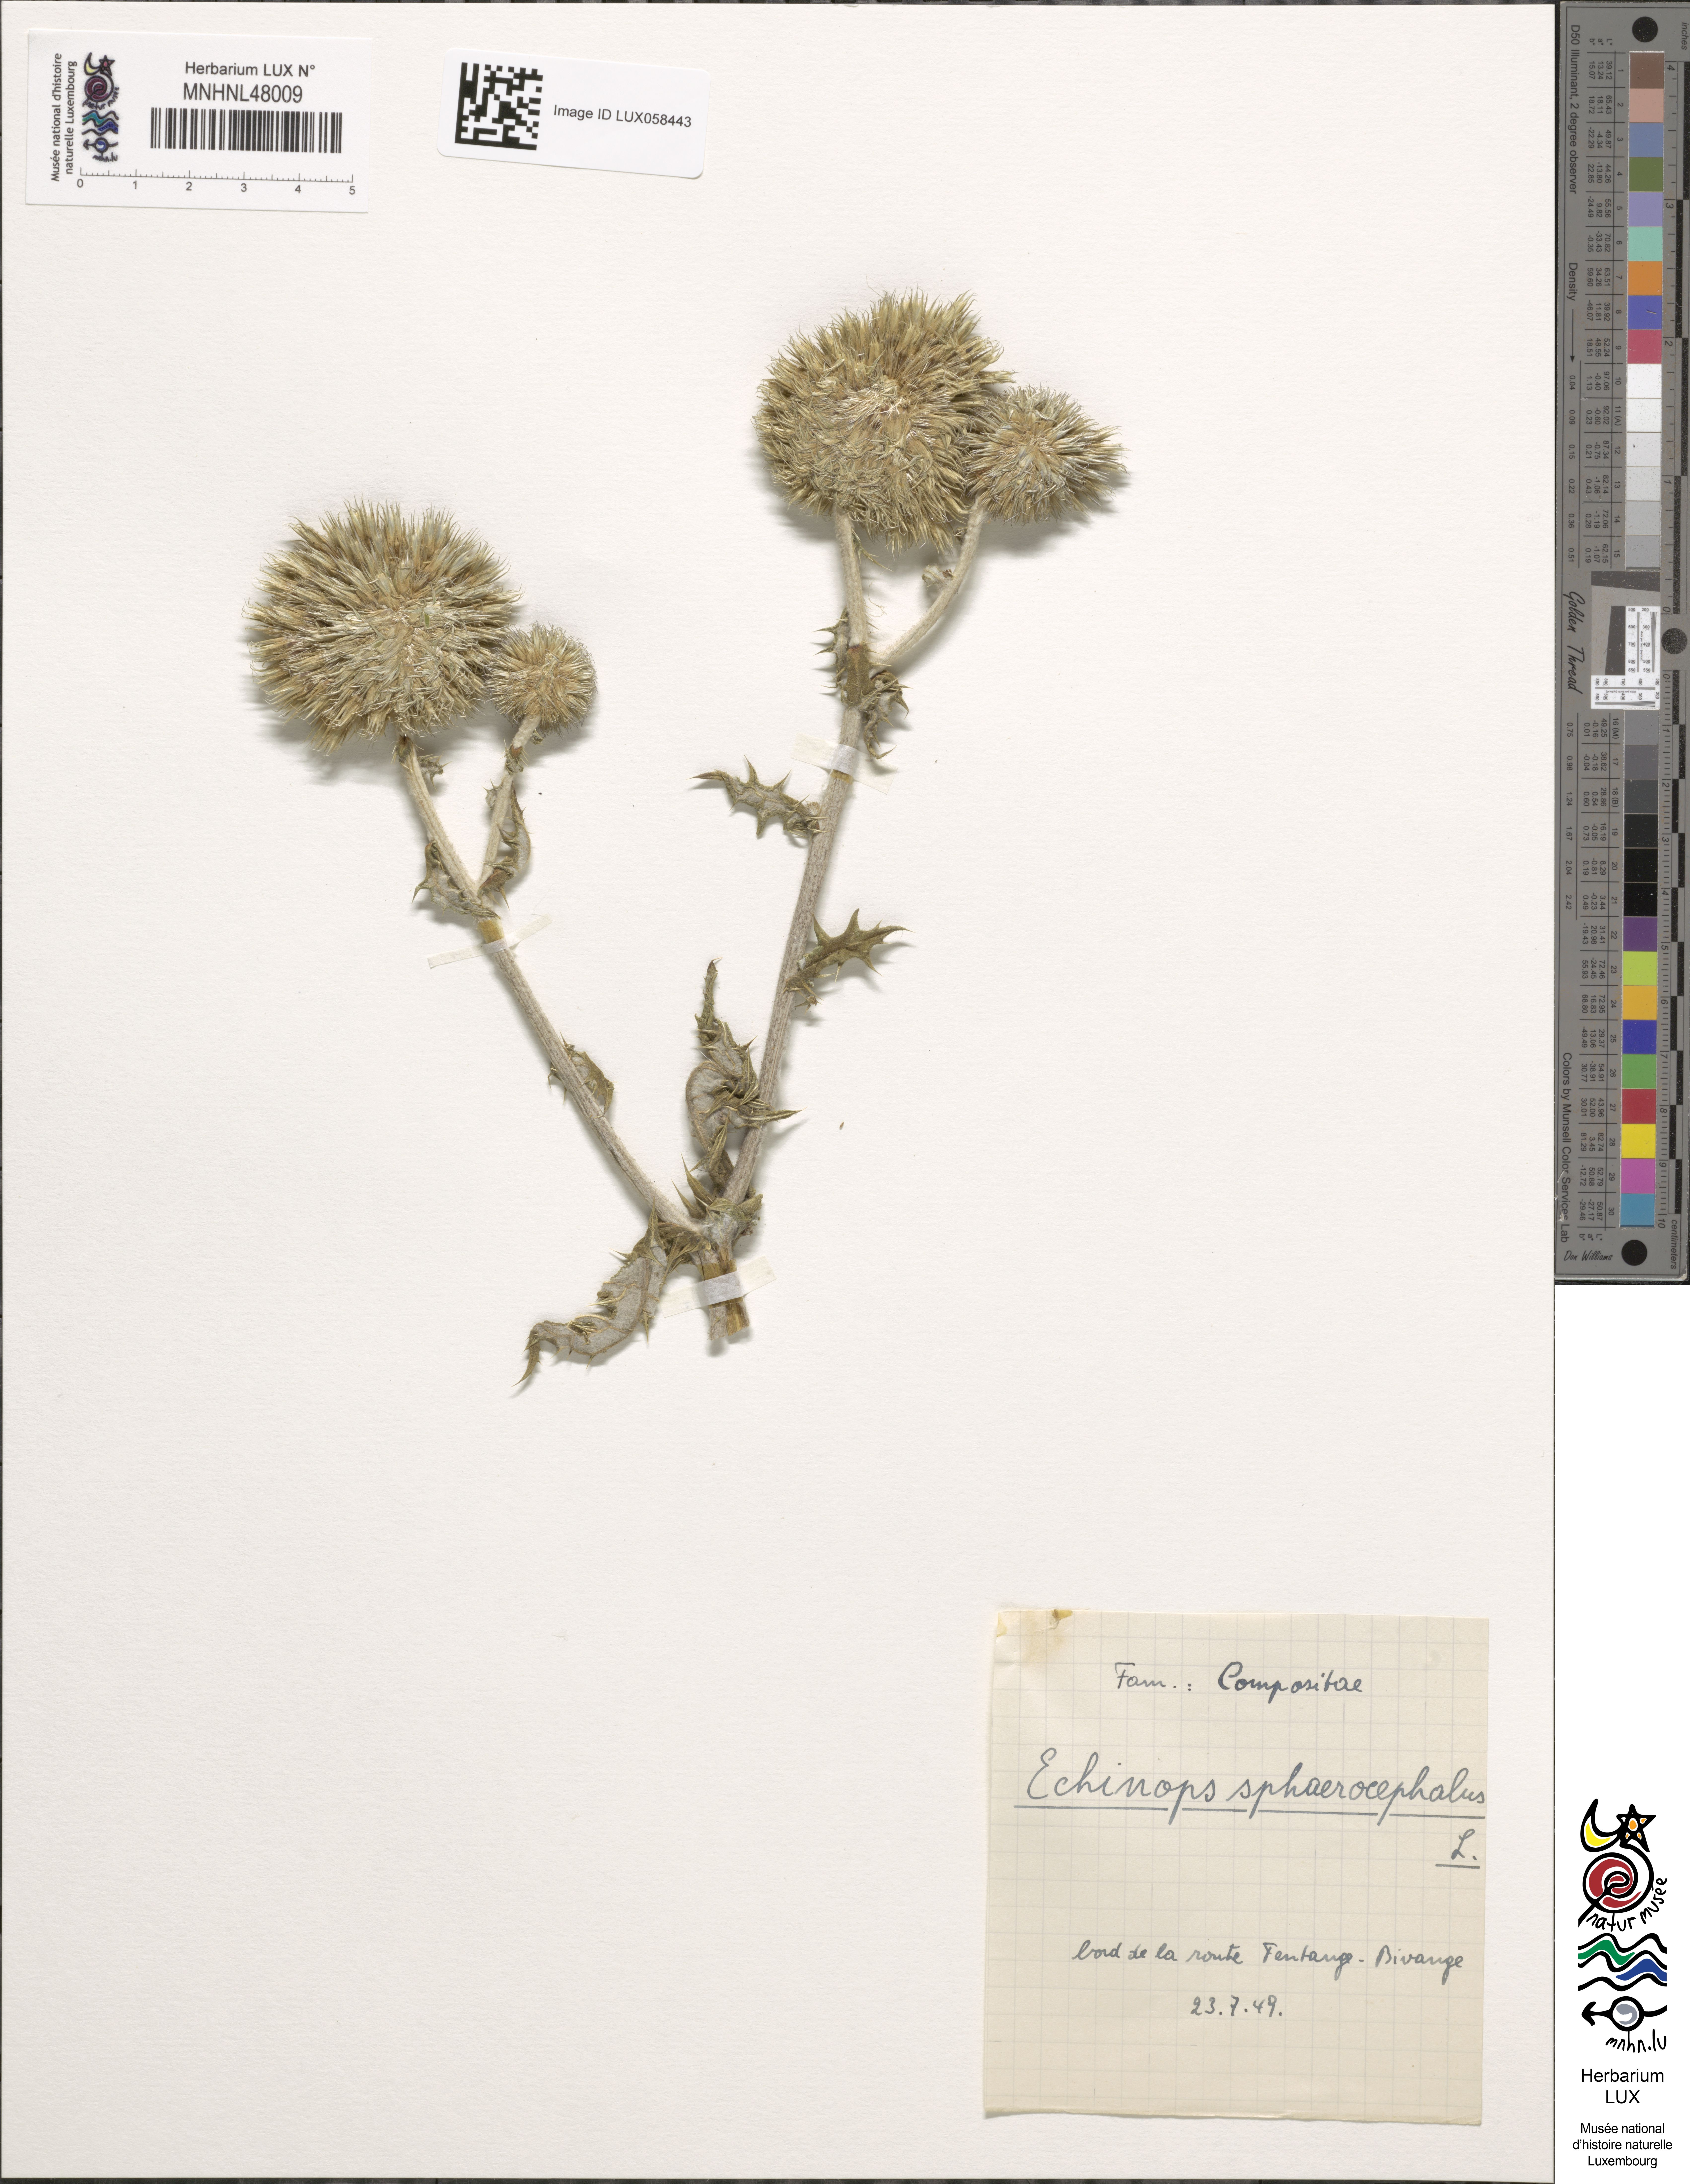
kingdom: Plantae
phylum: Tracheophyta
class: Magnoliopsida
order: Asterales
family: Asteraceae
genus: Echinops
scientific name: Echinops sphaerocephalus
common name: Glandular globe-thistle
